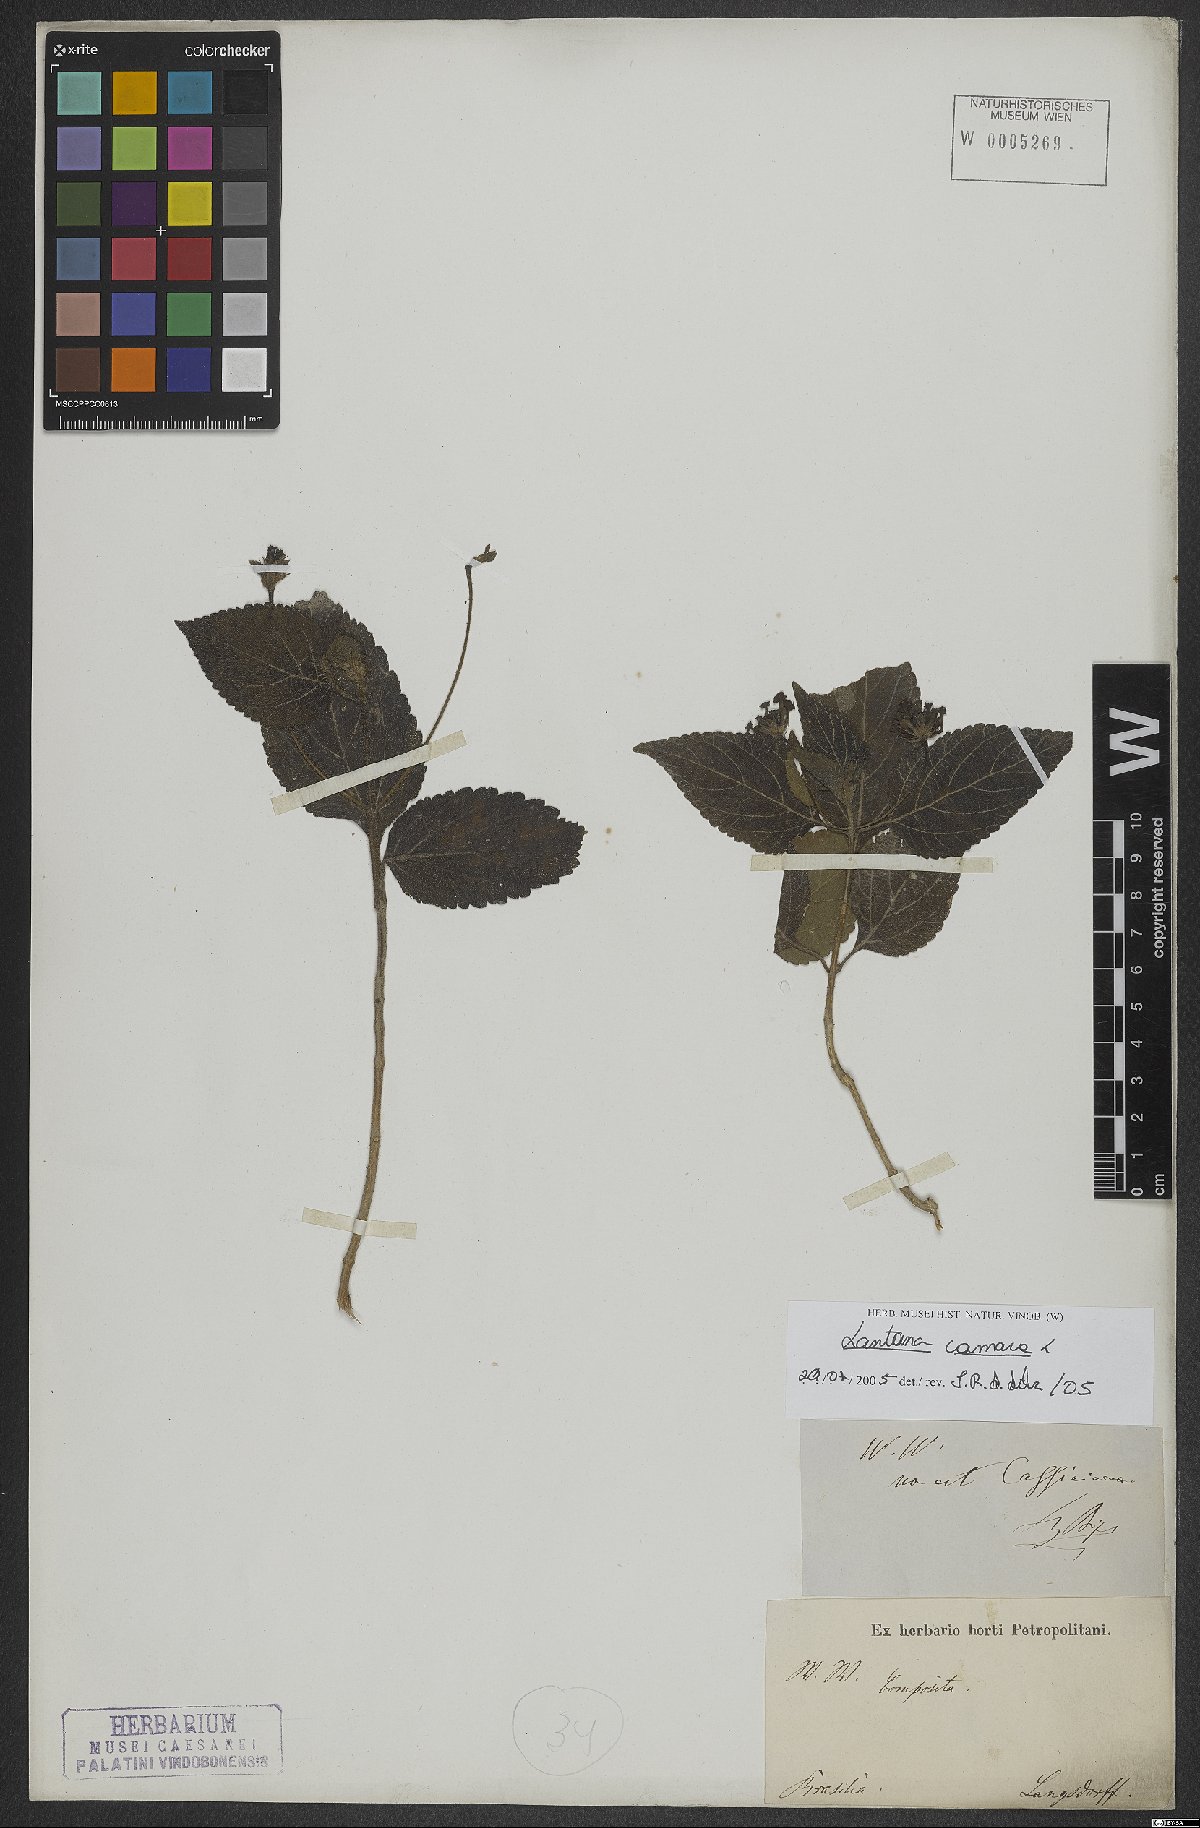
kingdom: Plantae
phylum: Tracheophyta
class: Magnoliopsida
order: Lamiales
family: Verbenaceae
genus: Lantana
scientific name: Lantana camara
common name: Lantana
